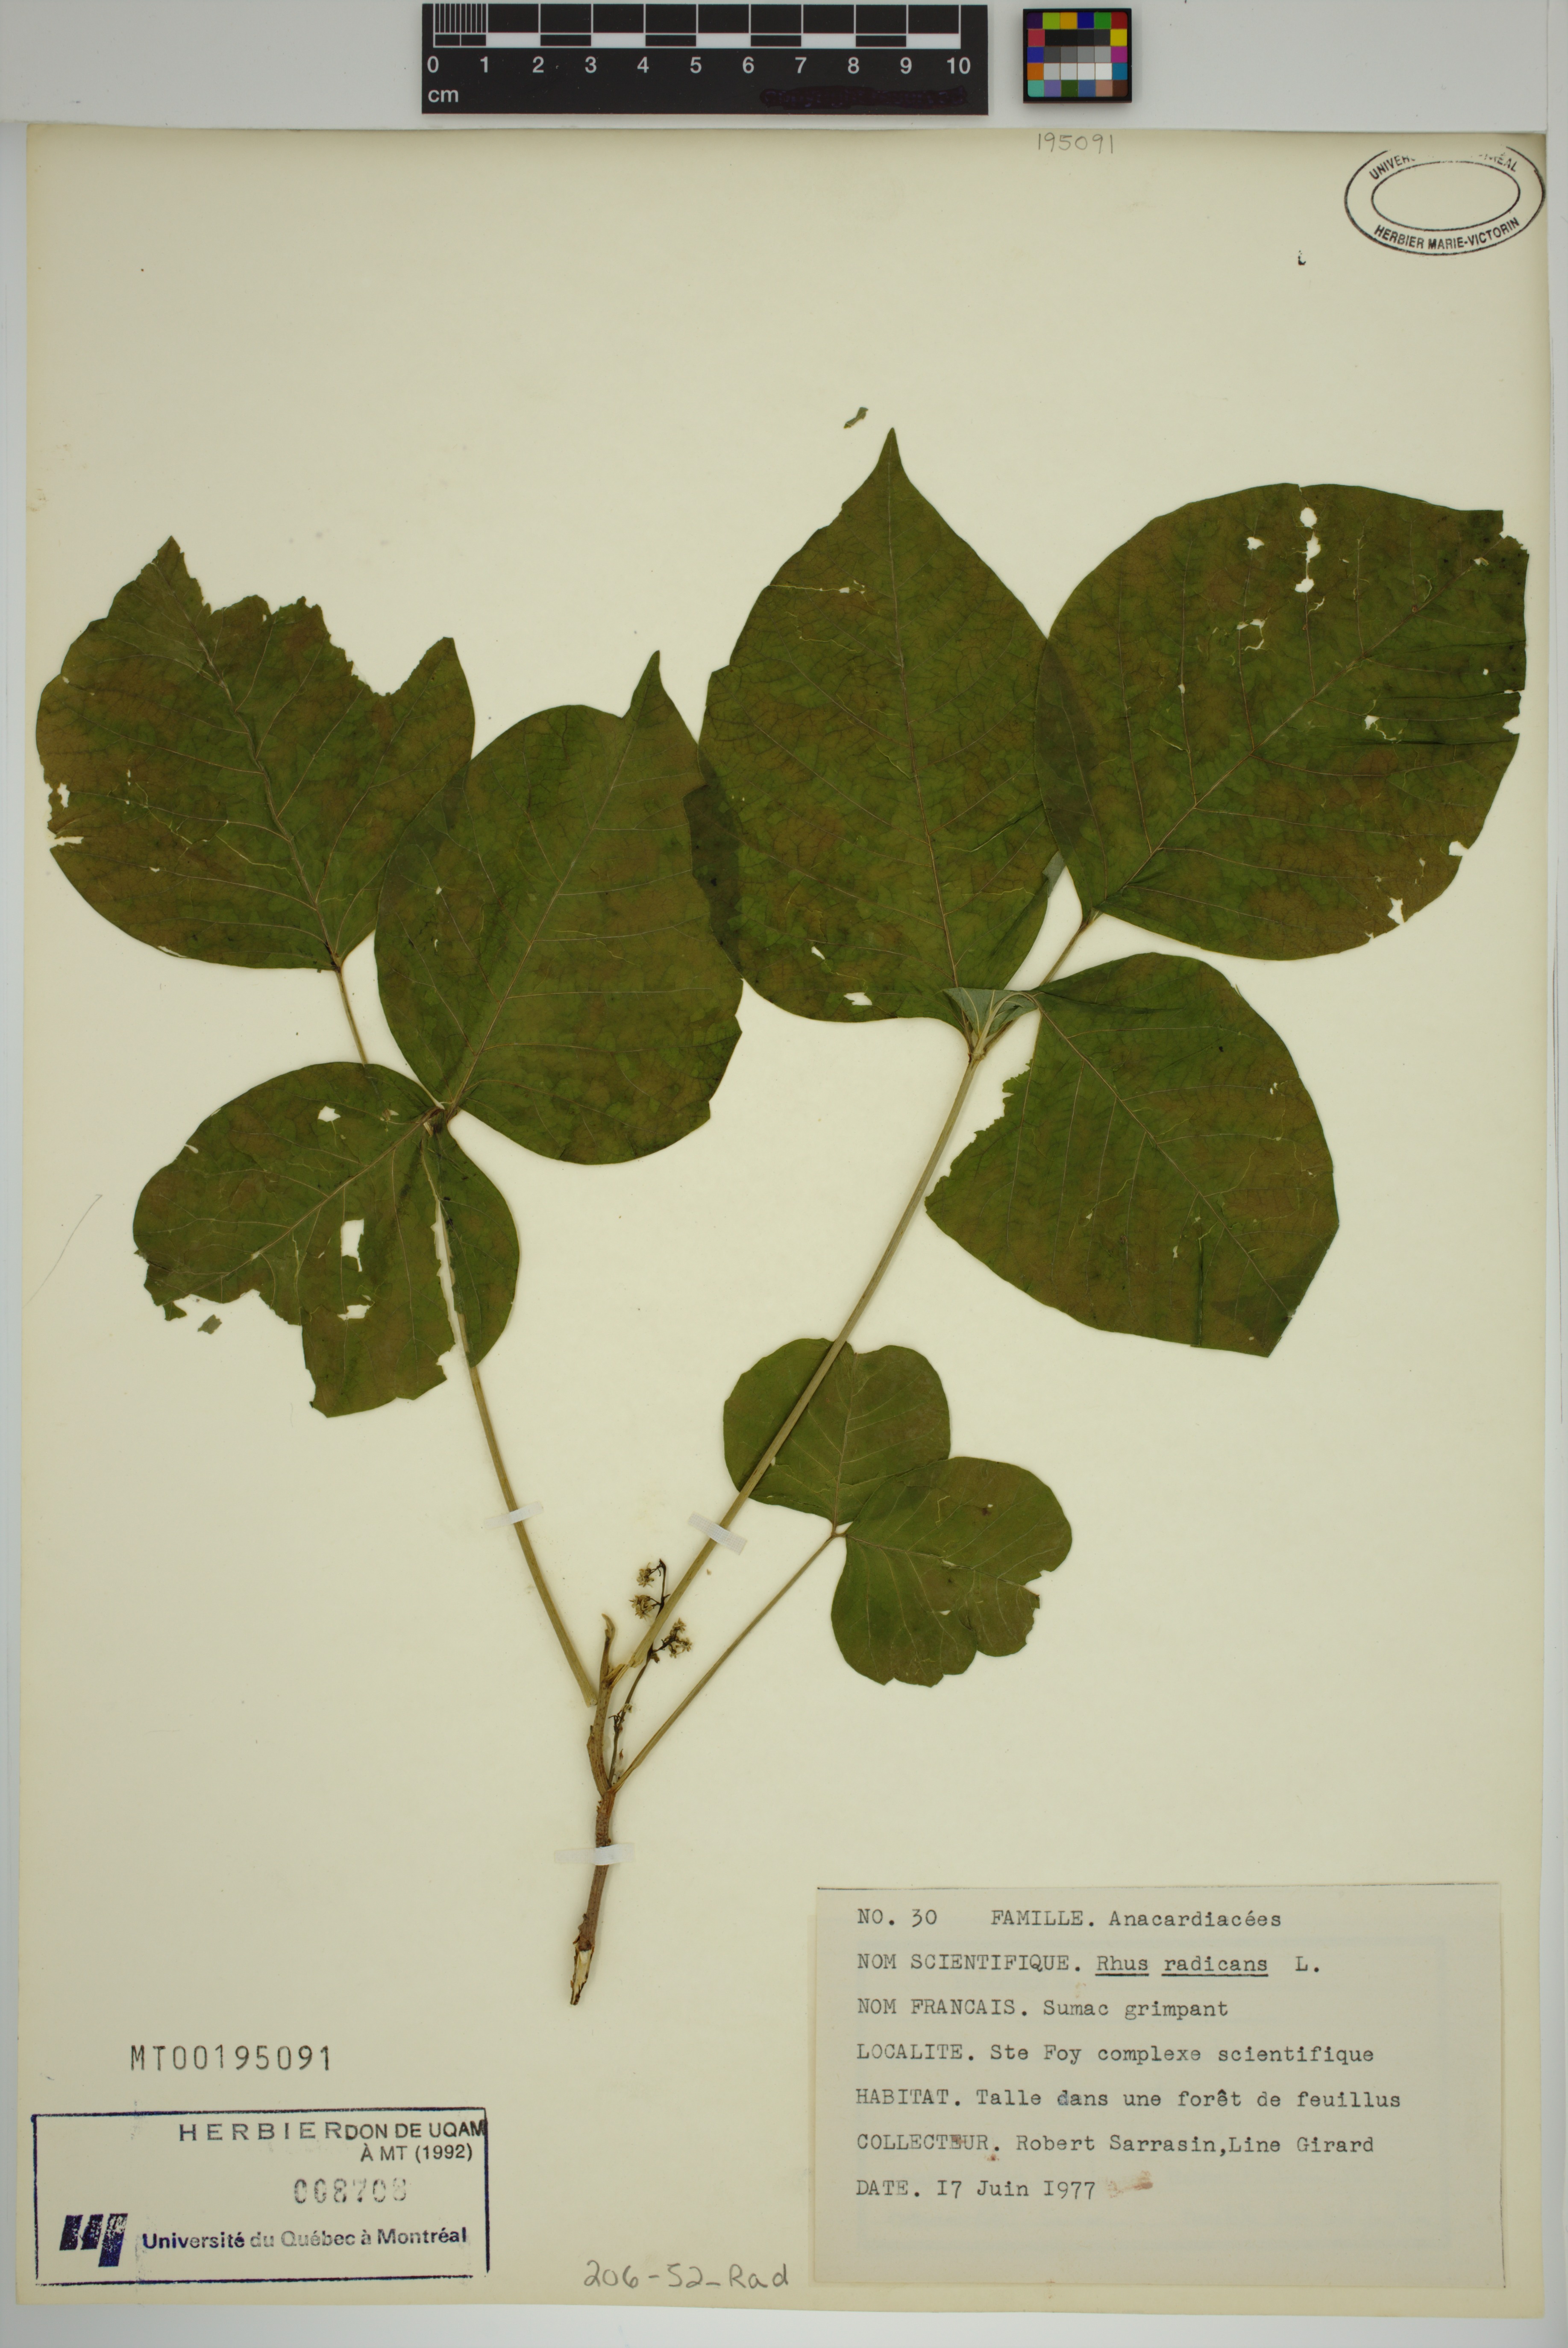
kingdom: Plantae
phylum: Tracheophyta
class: Magnoliopsida
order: Sapindales
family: Anacardiaceae
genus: Toxicodendron
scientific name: Toxicodendron radicans
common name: Poison ivy
